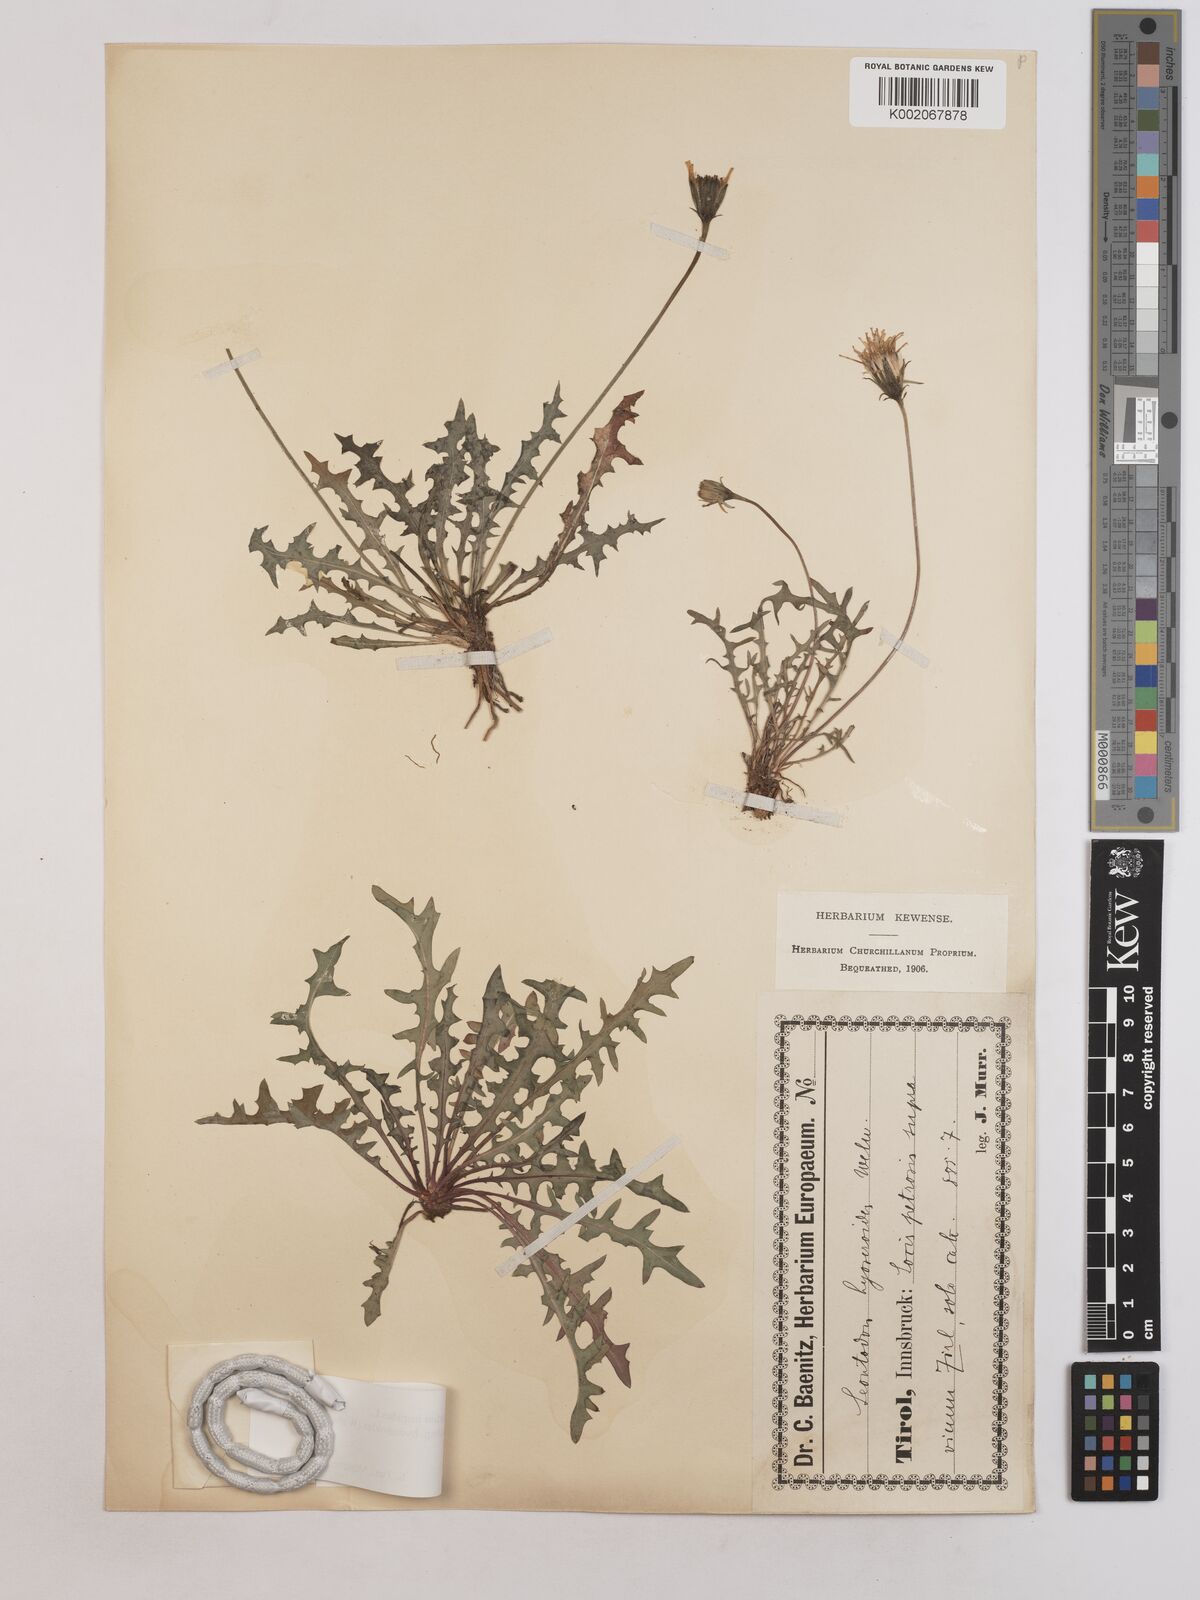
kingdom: Plantae
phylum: Tracheophyta
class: Magnoliopsida
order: Asterales
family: Asteraceae
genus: Leontodon
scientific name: Leontodon hispidus
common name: Rough hawkbit
